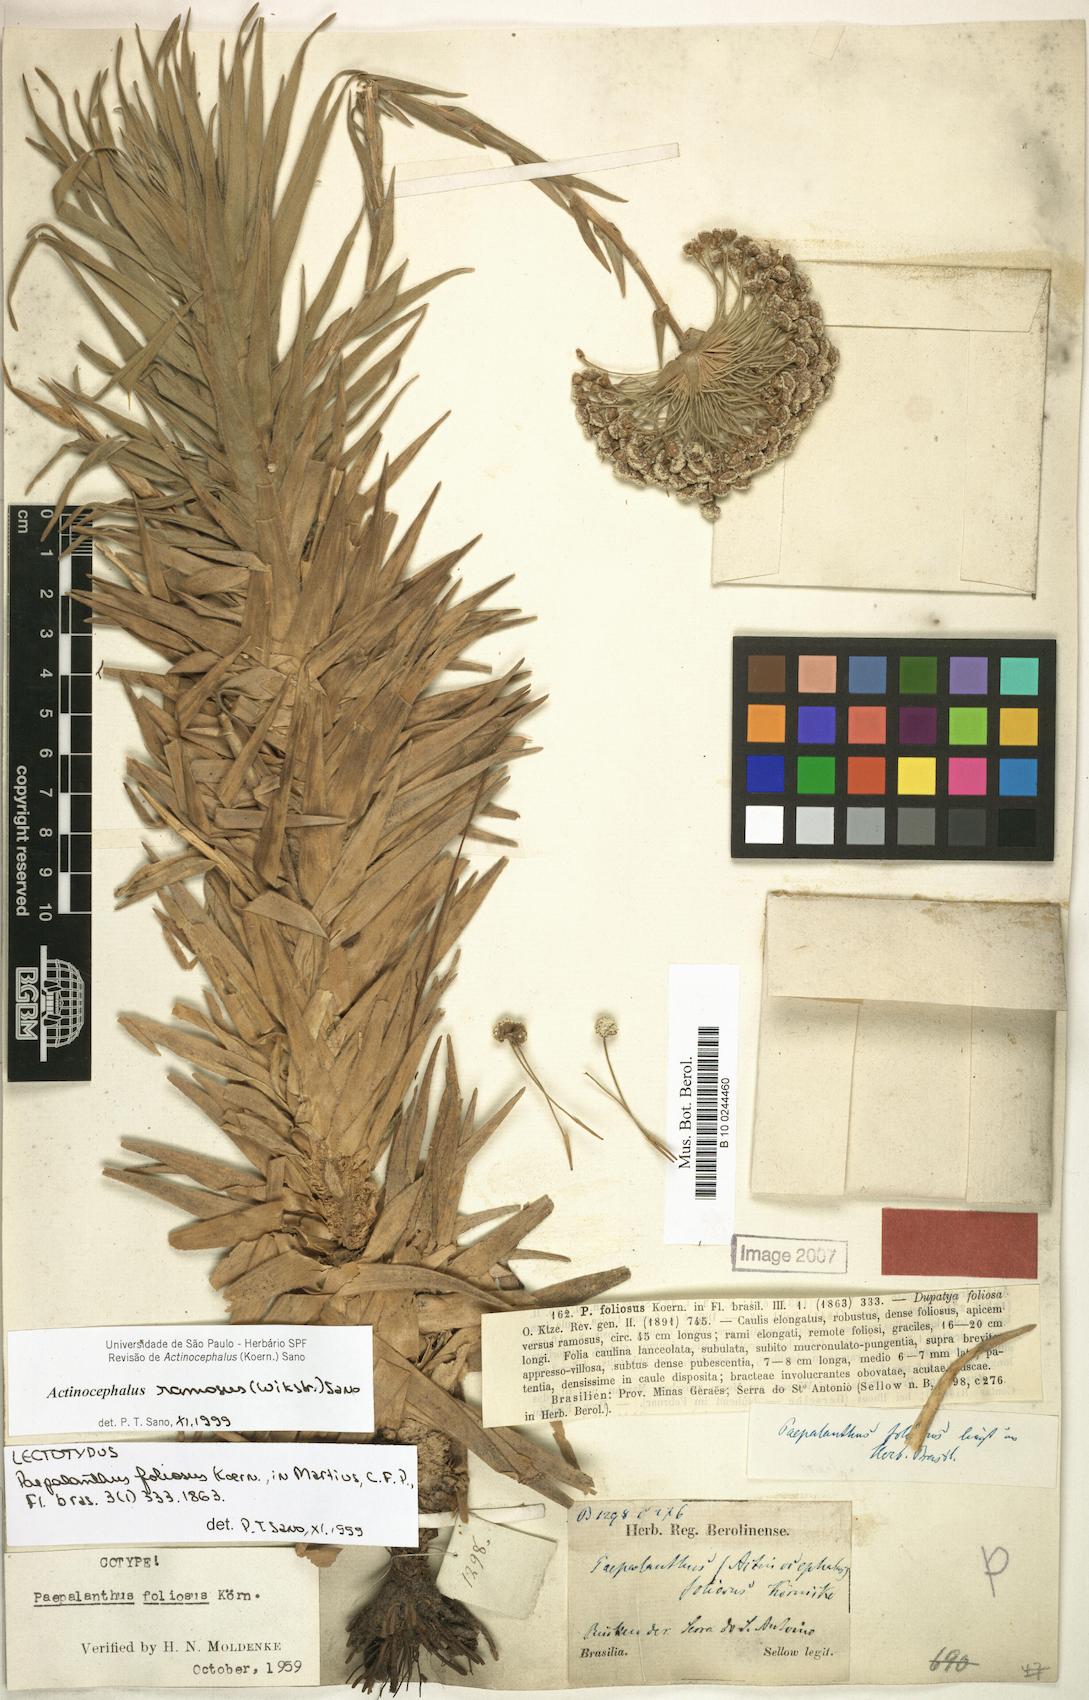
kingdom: Plantae
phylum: Tracheophyta
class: Liliopsida
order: Poales
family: Eriocaulaceae
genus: Paepalanthus
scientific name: Paepalanthus ramosus
